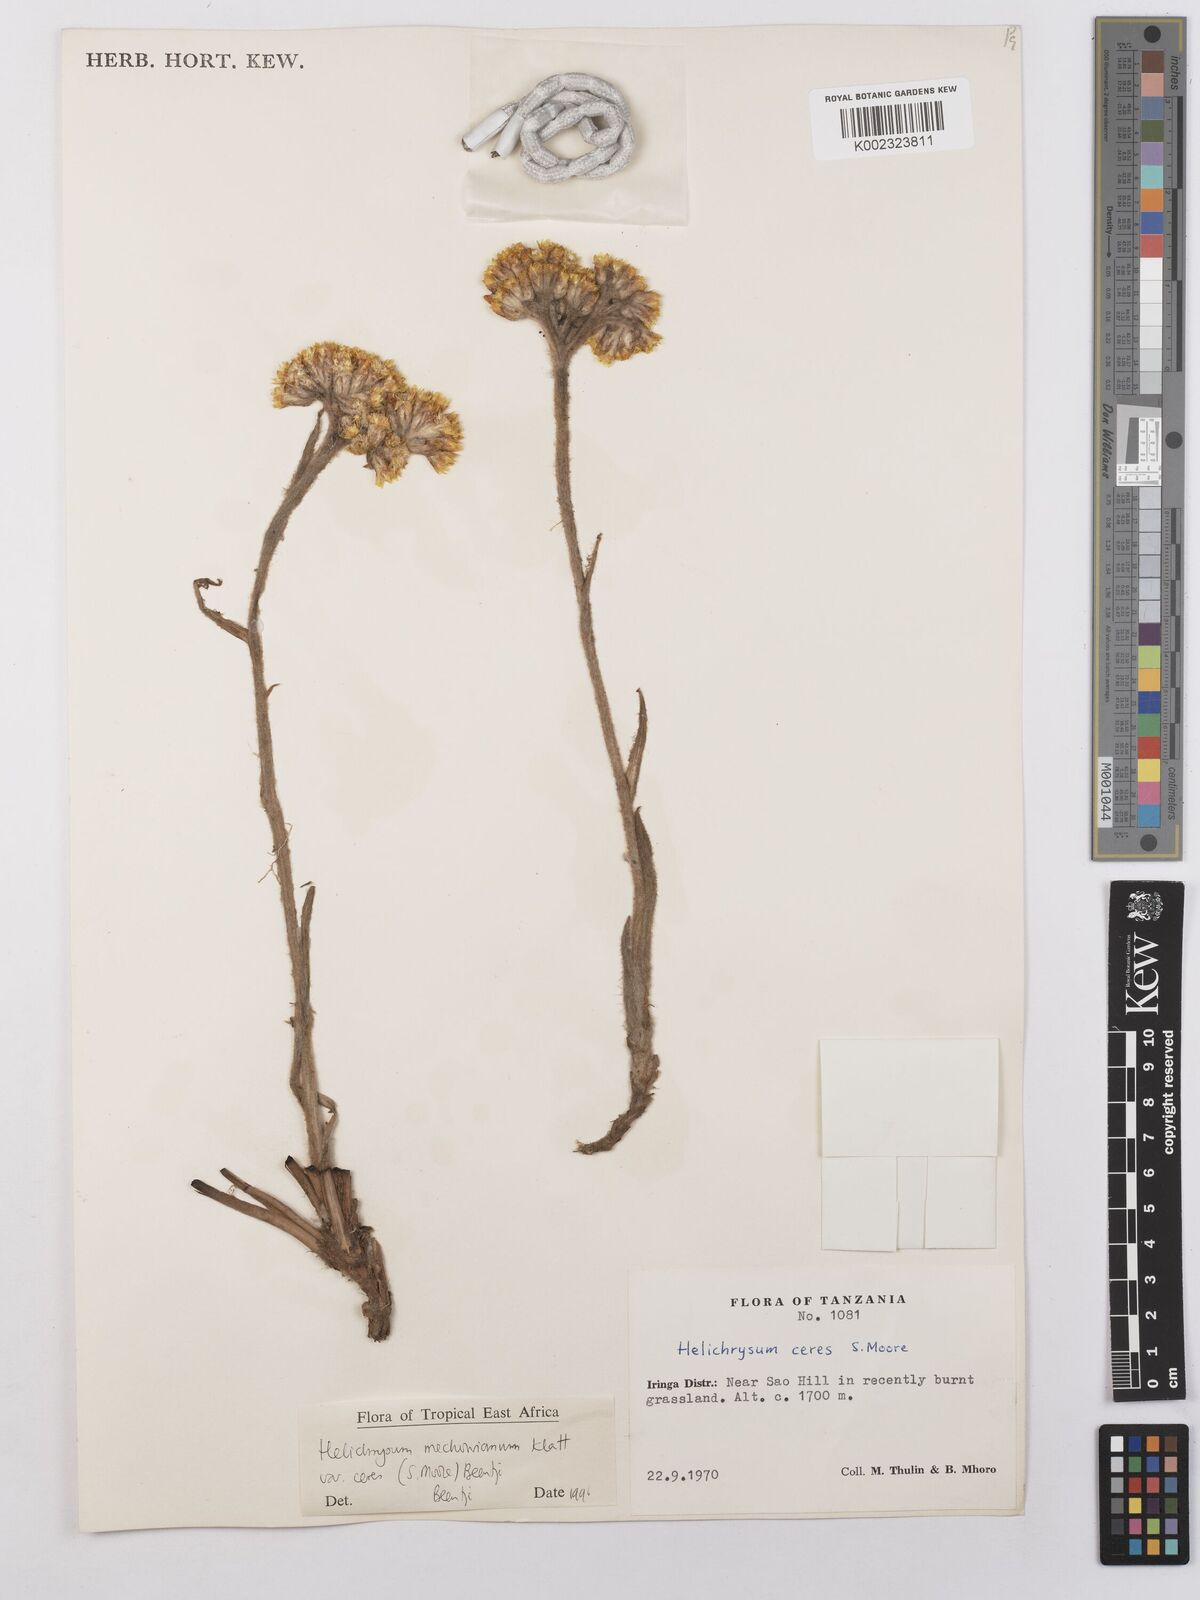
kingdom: Plantae
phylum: Tracheophyta
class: Magnoliopsida
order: Asterales
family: Asteraceae
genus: Helichrysum
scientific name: Helichrysum mechowianum
